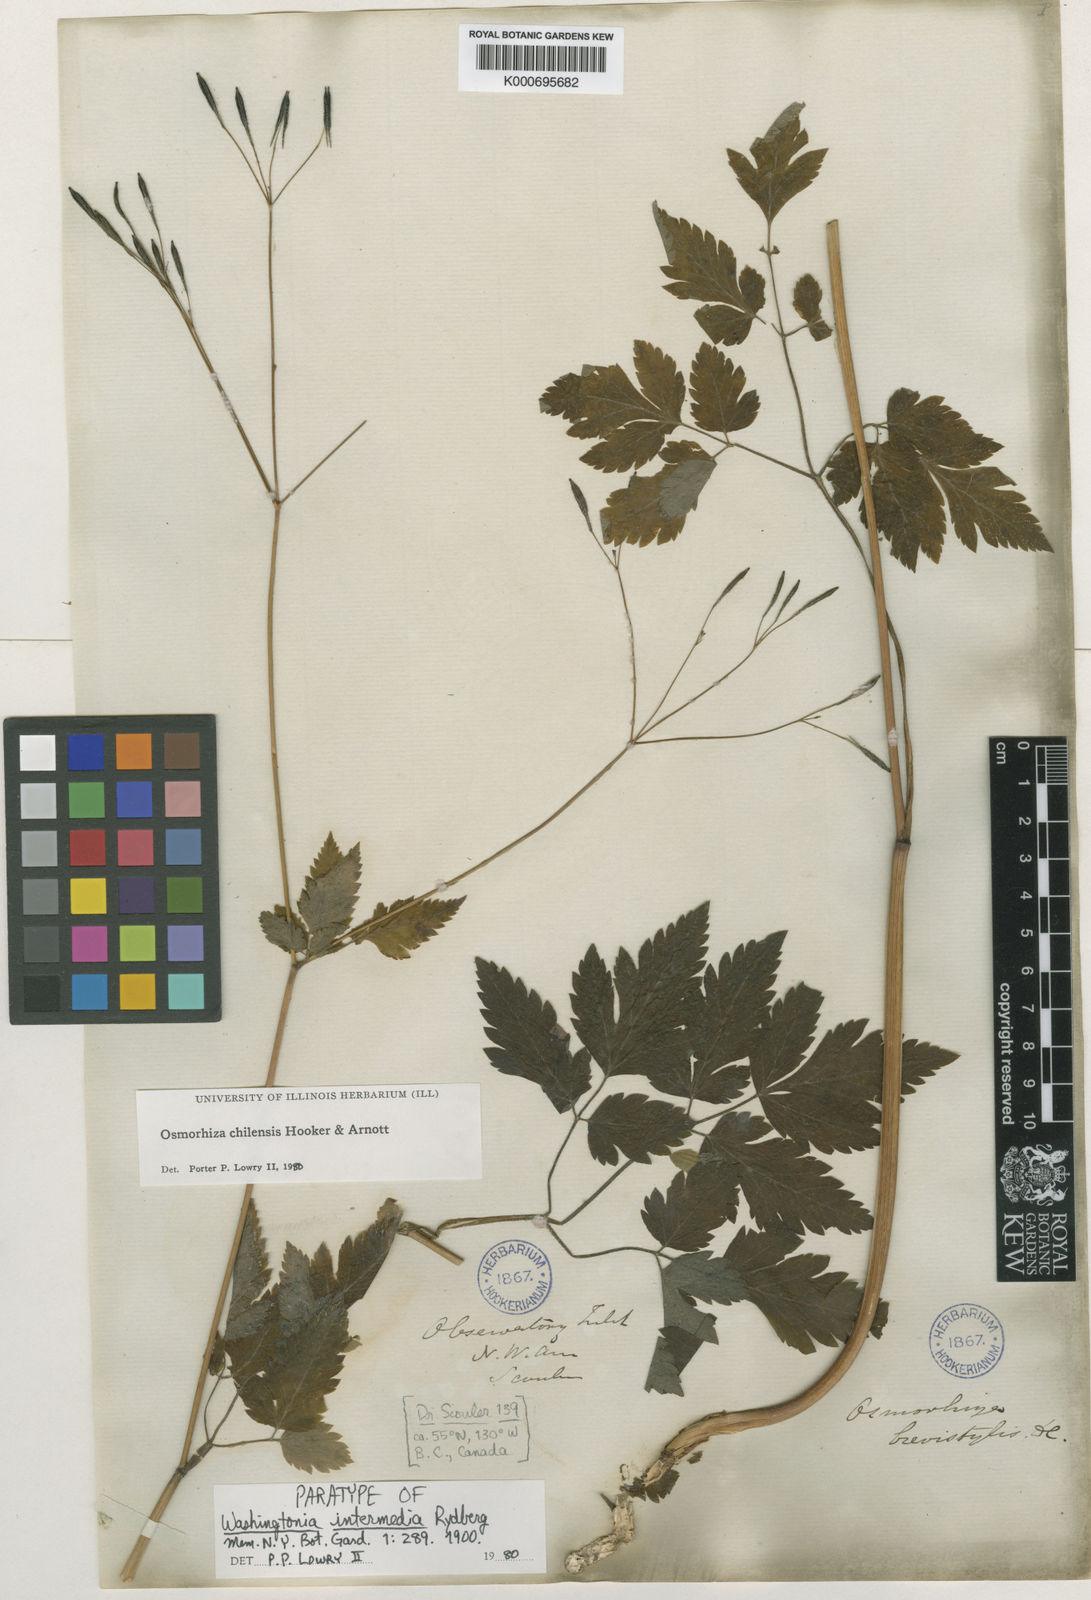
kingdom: Plantae
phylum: Tracheophyta
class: Magnoliopsida
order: Apiales
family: Apiaceae
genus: Osmorhiza
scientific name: Osmorhiza berteroi
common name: Mountain sweet cicely
